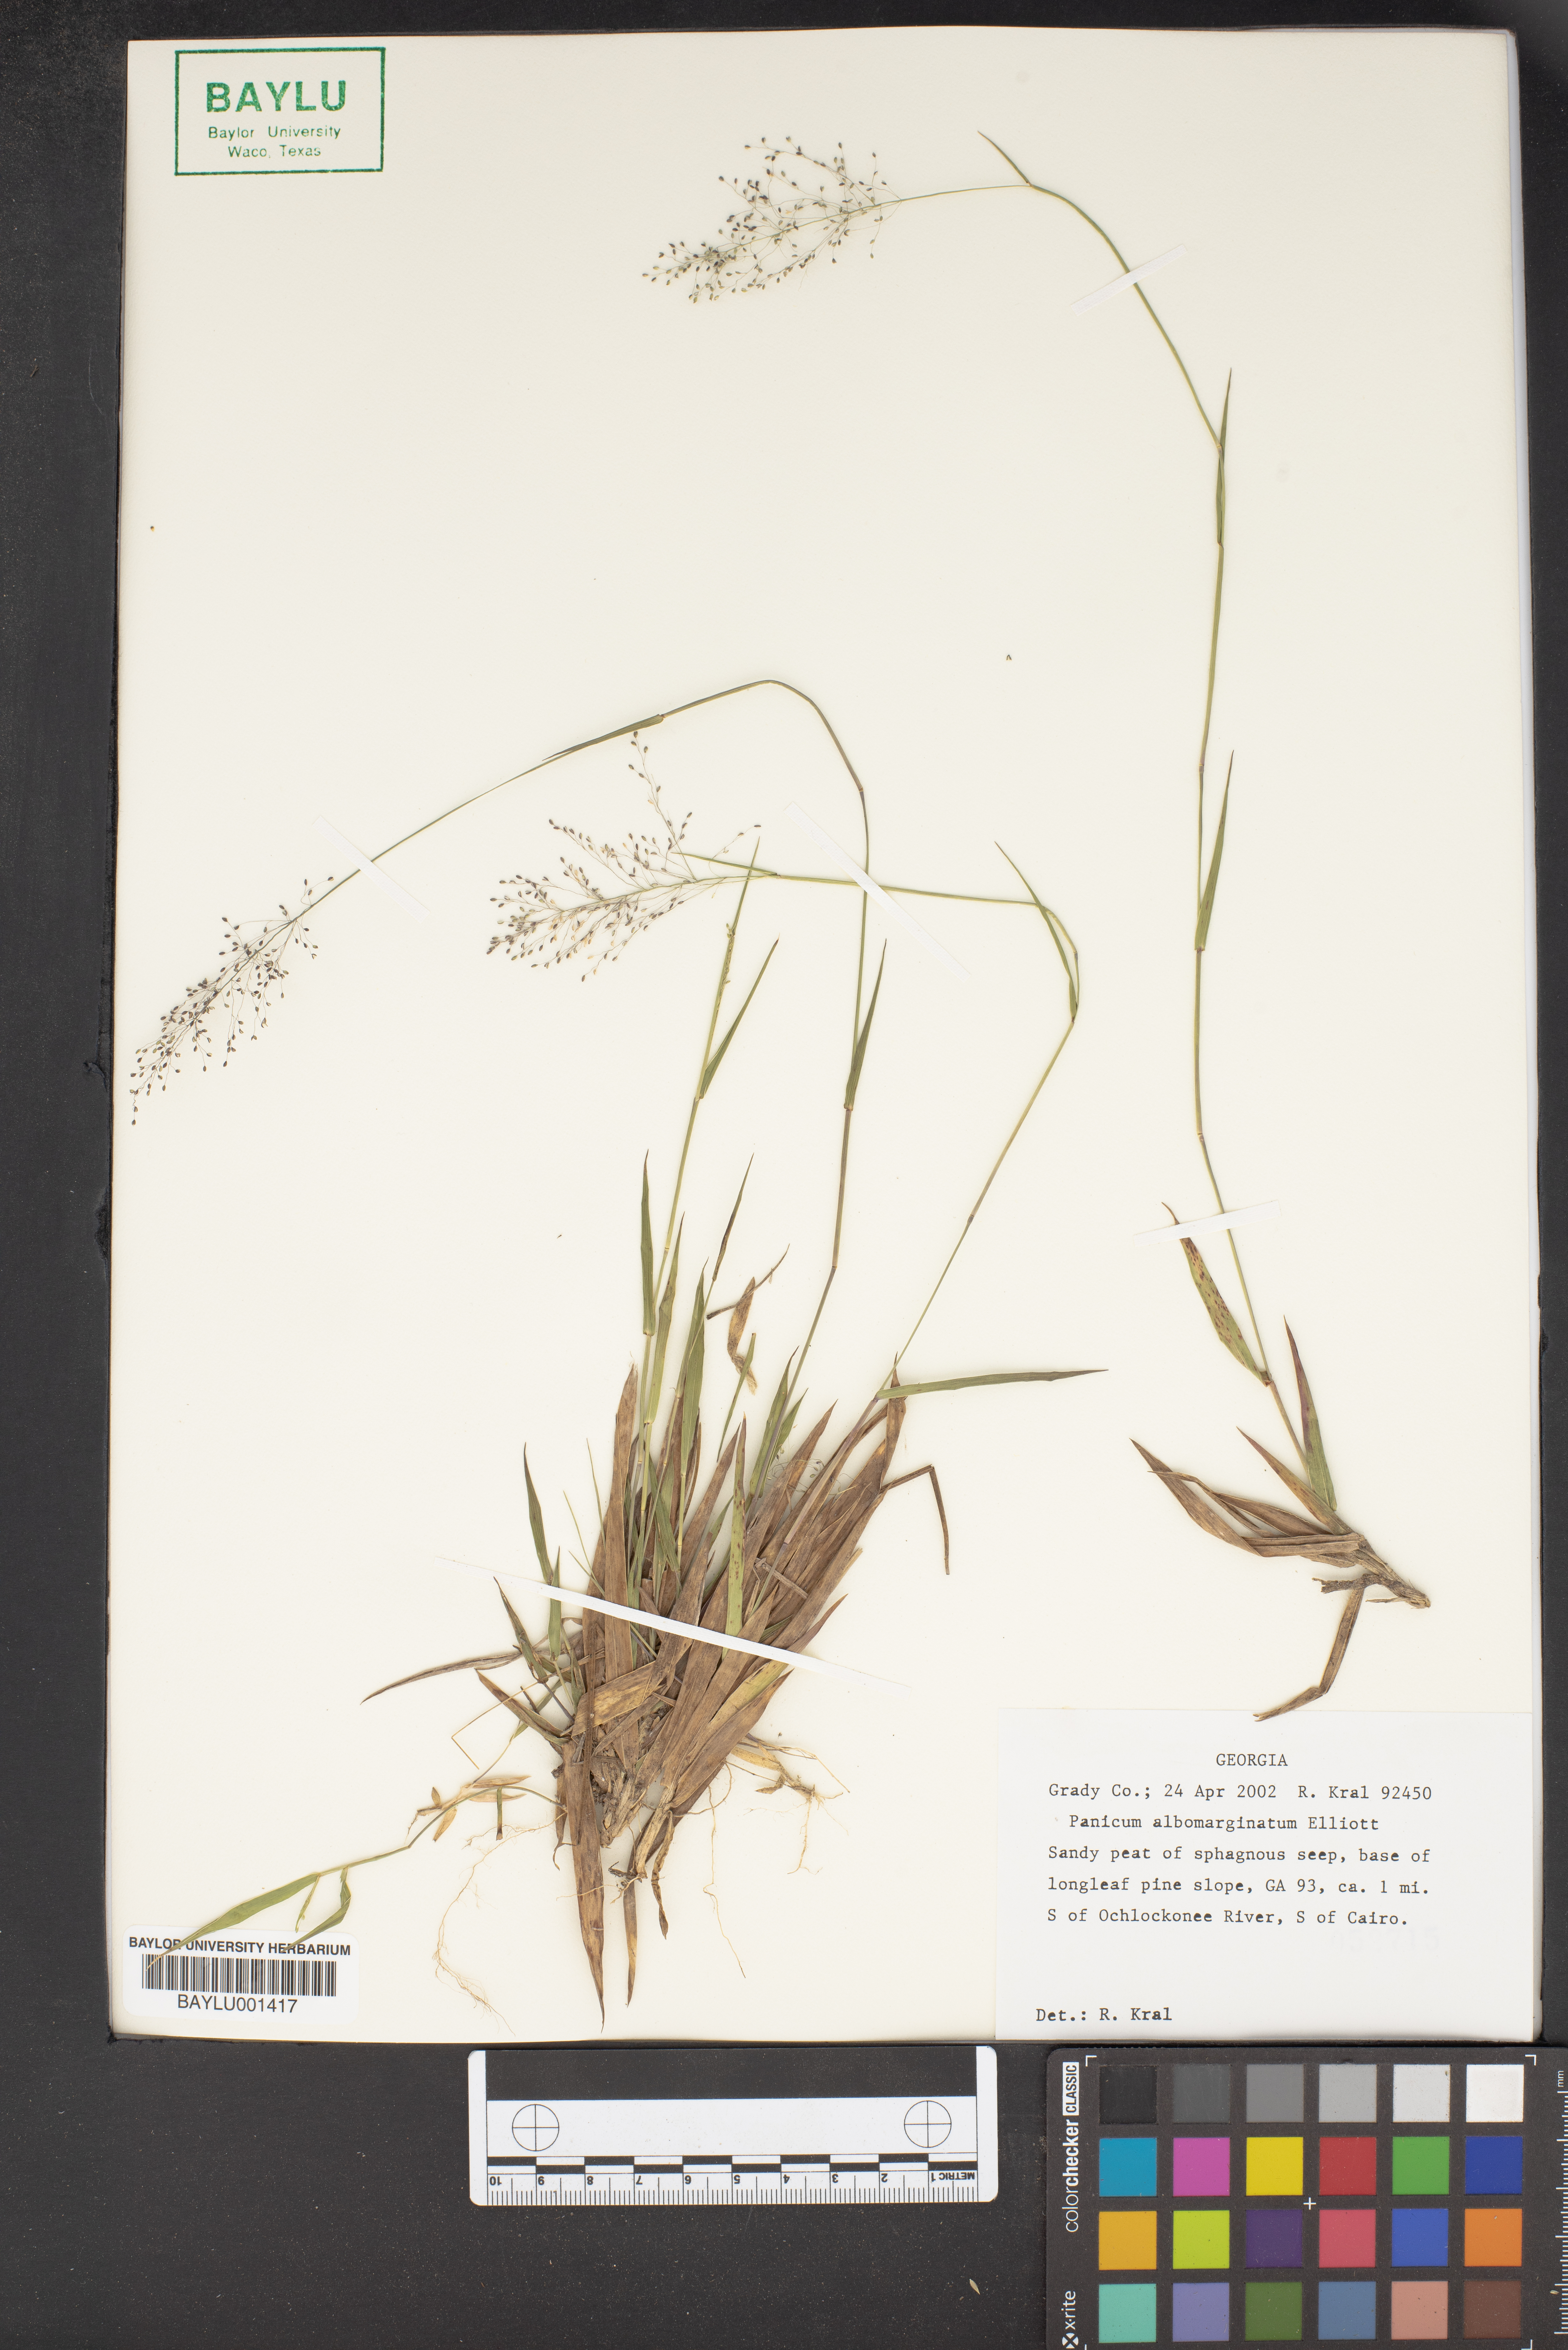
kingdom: Plantae
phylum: Tracheophyta
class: Liliopsida
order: Poales
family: Poaceae
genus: Dichanthelium
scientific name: Dichanthelium albomarginatum
